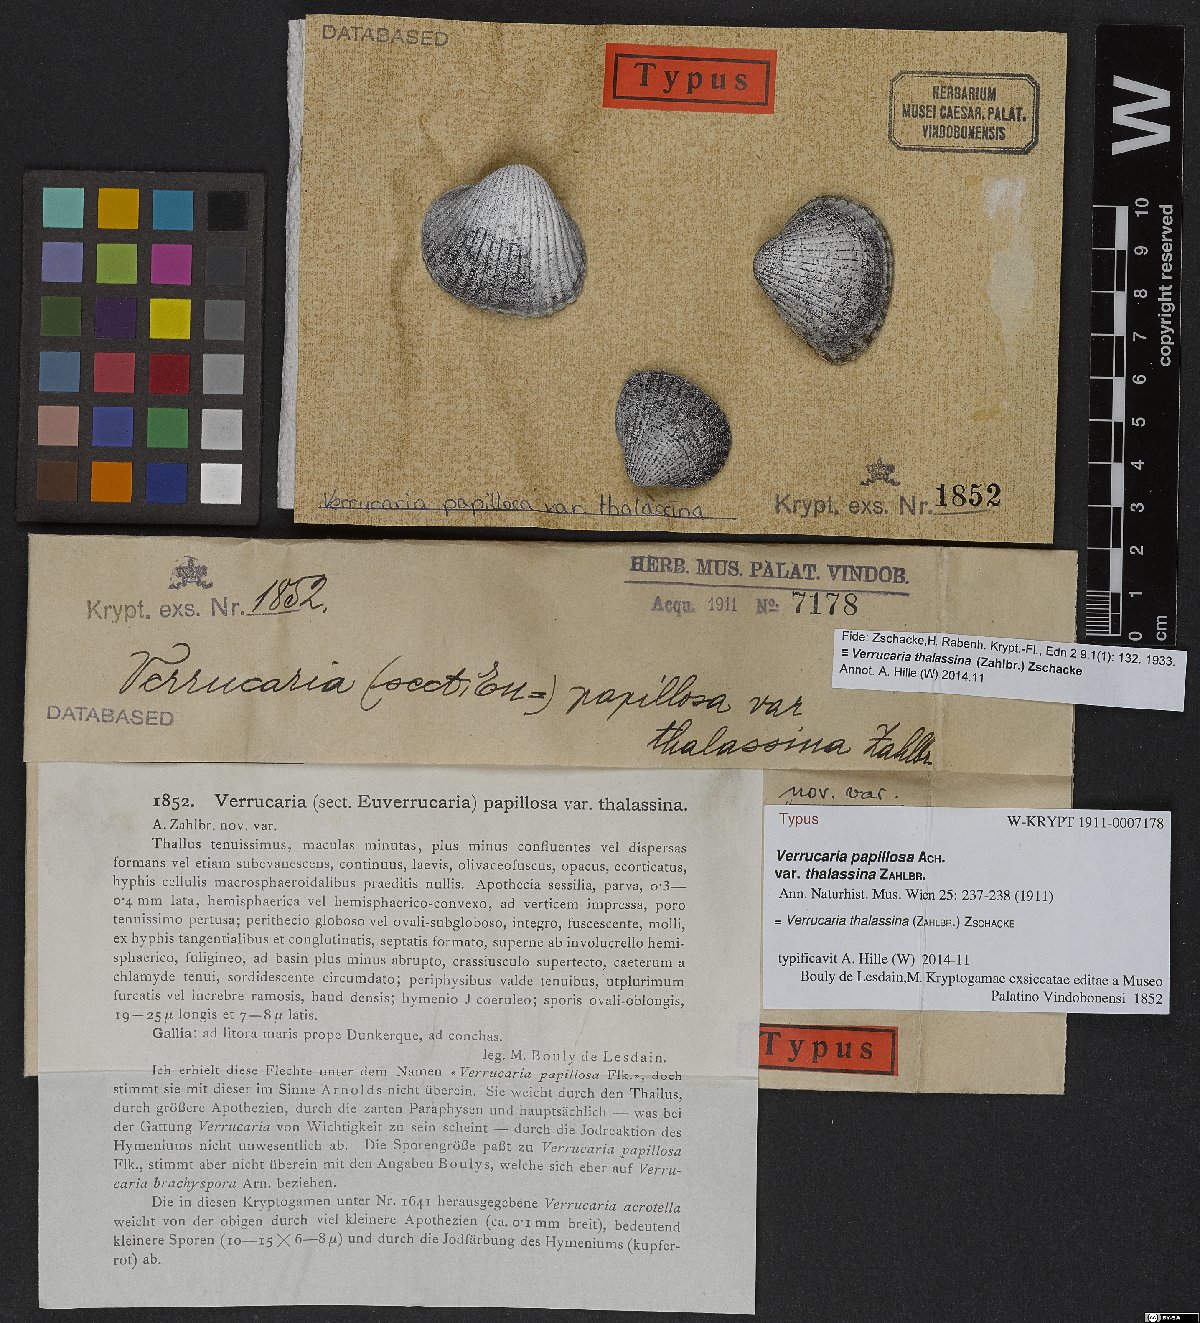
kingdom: Fungi
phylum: Ascomycota
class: Eurotiomycetes
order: Verrucariales
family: Verrucariaceae
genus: Verrucaria
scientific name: Verrucaria thalassina
